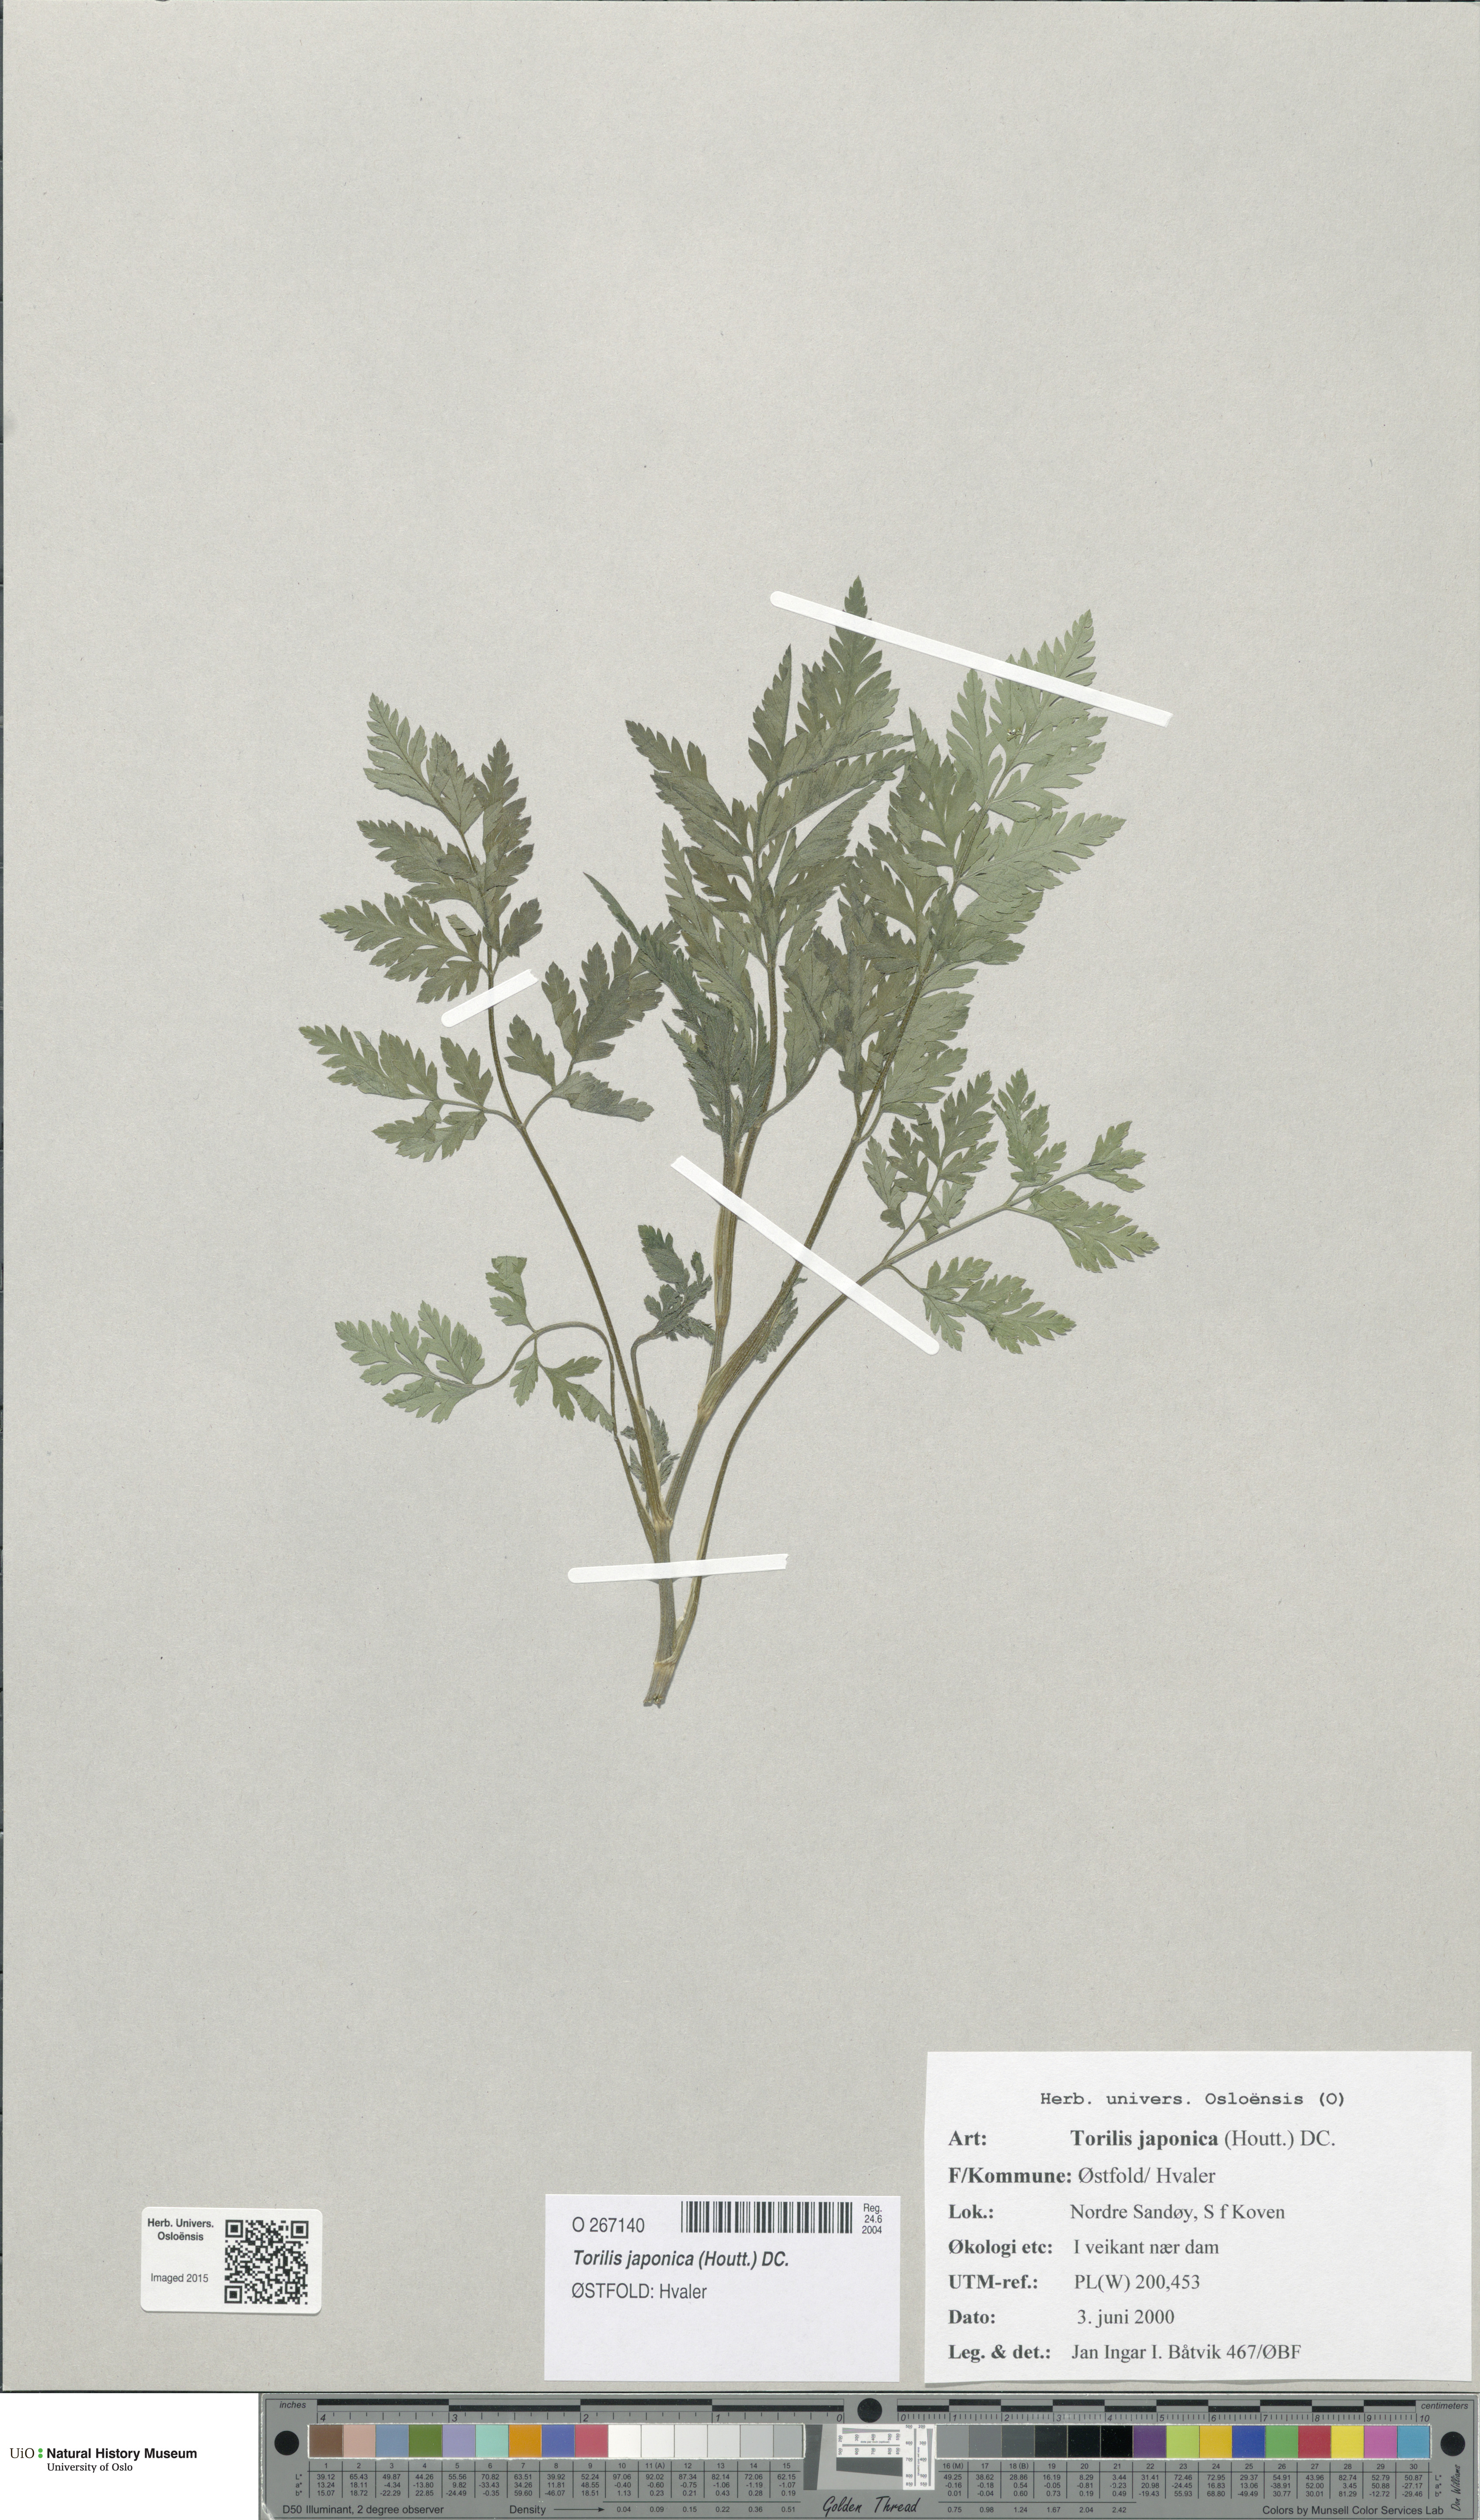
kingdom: Plantae
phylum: Tracheophyta
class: Magnoliopsida
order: Apiales
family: Apiaceae
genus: Torilis
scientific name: Torilis japonica
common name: Upright hedge-parsley
